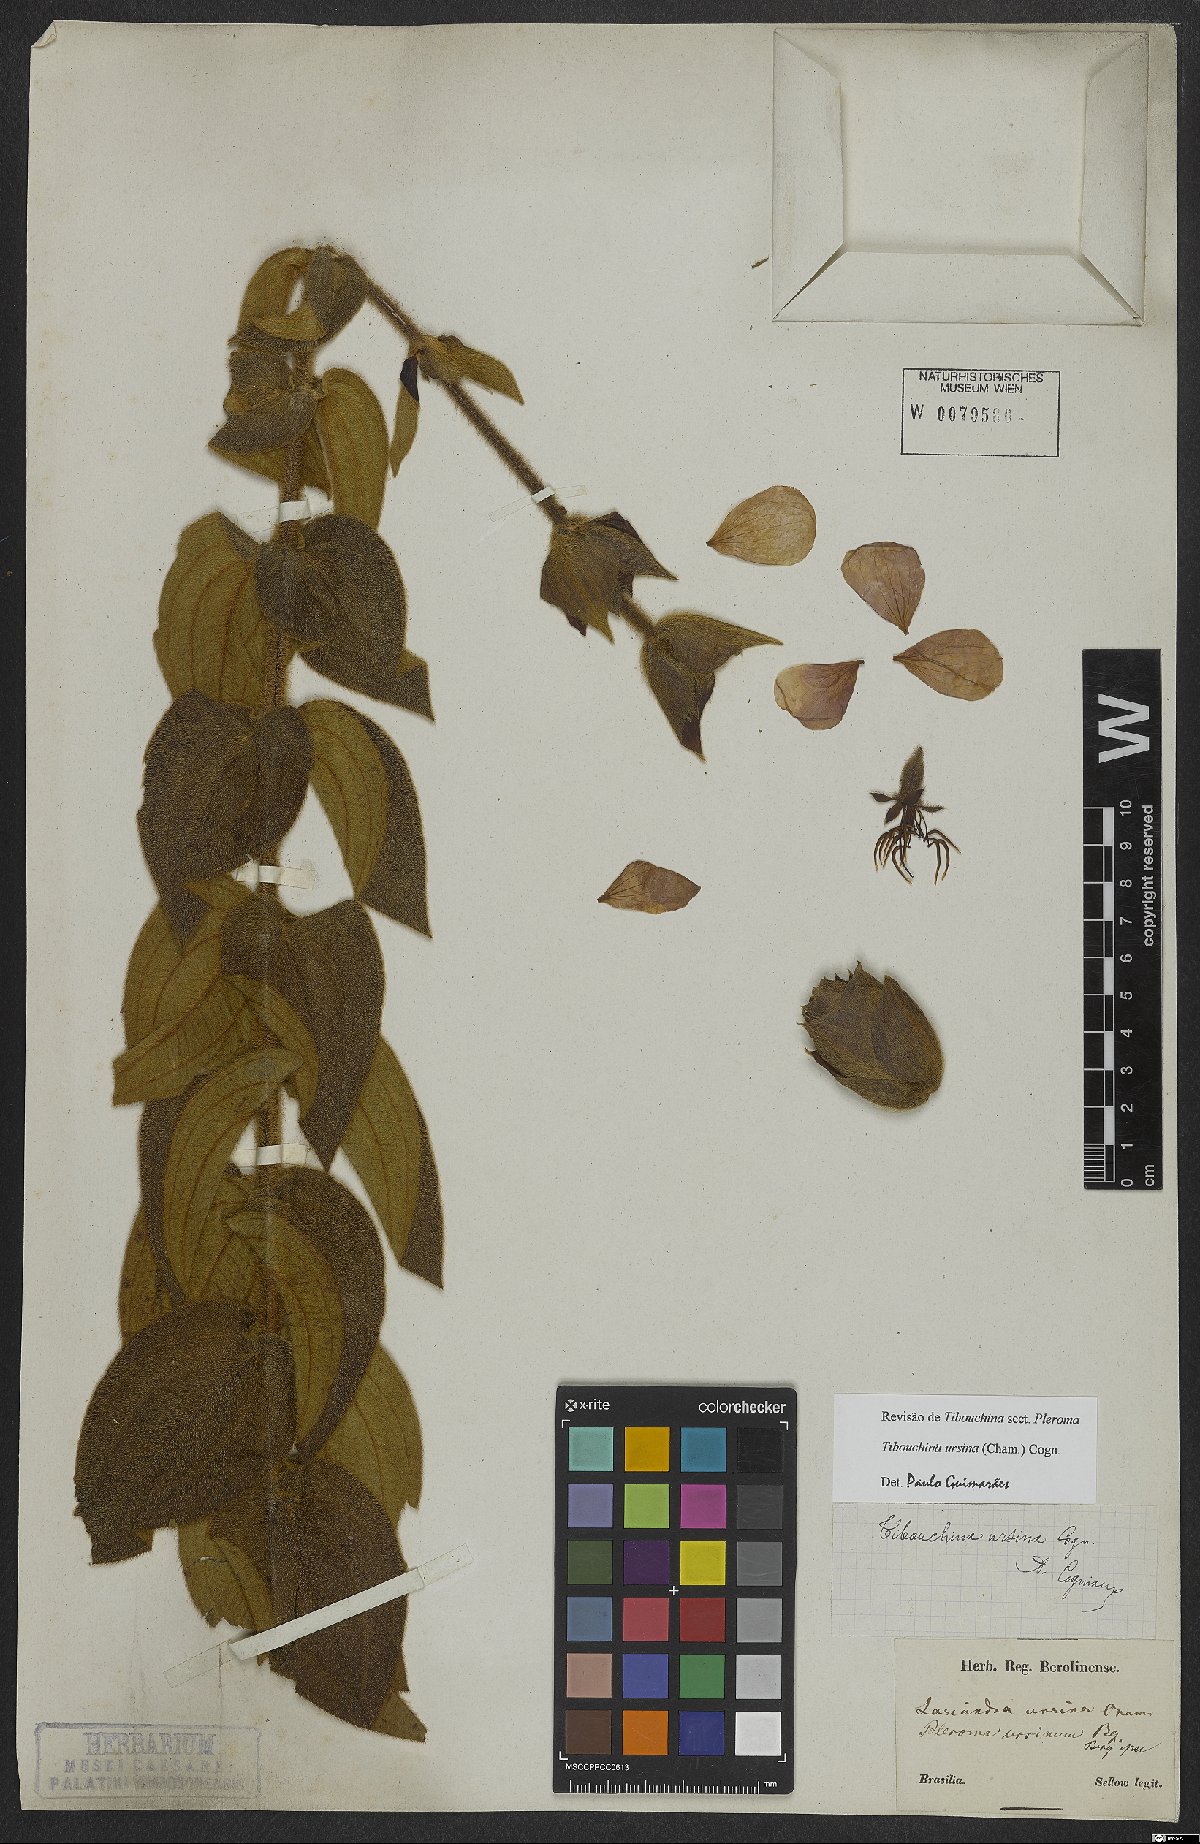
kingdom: Plantae
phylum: Tracheophyta
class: Magnoliopsida
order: Myrtales
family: Melastomataceae
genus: Pleroma
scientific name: Pleroma ursinum
